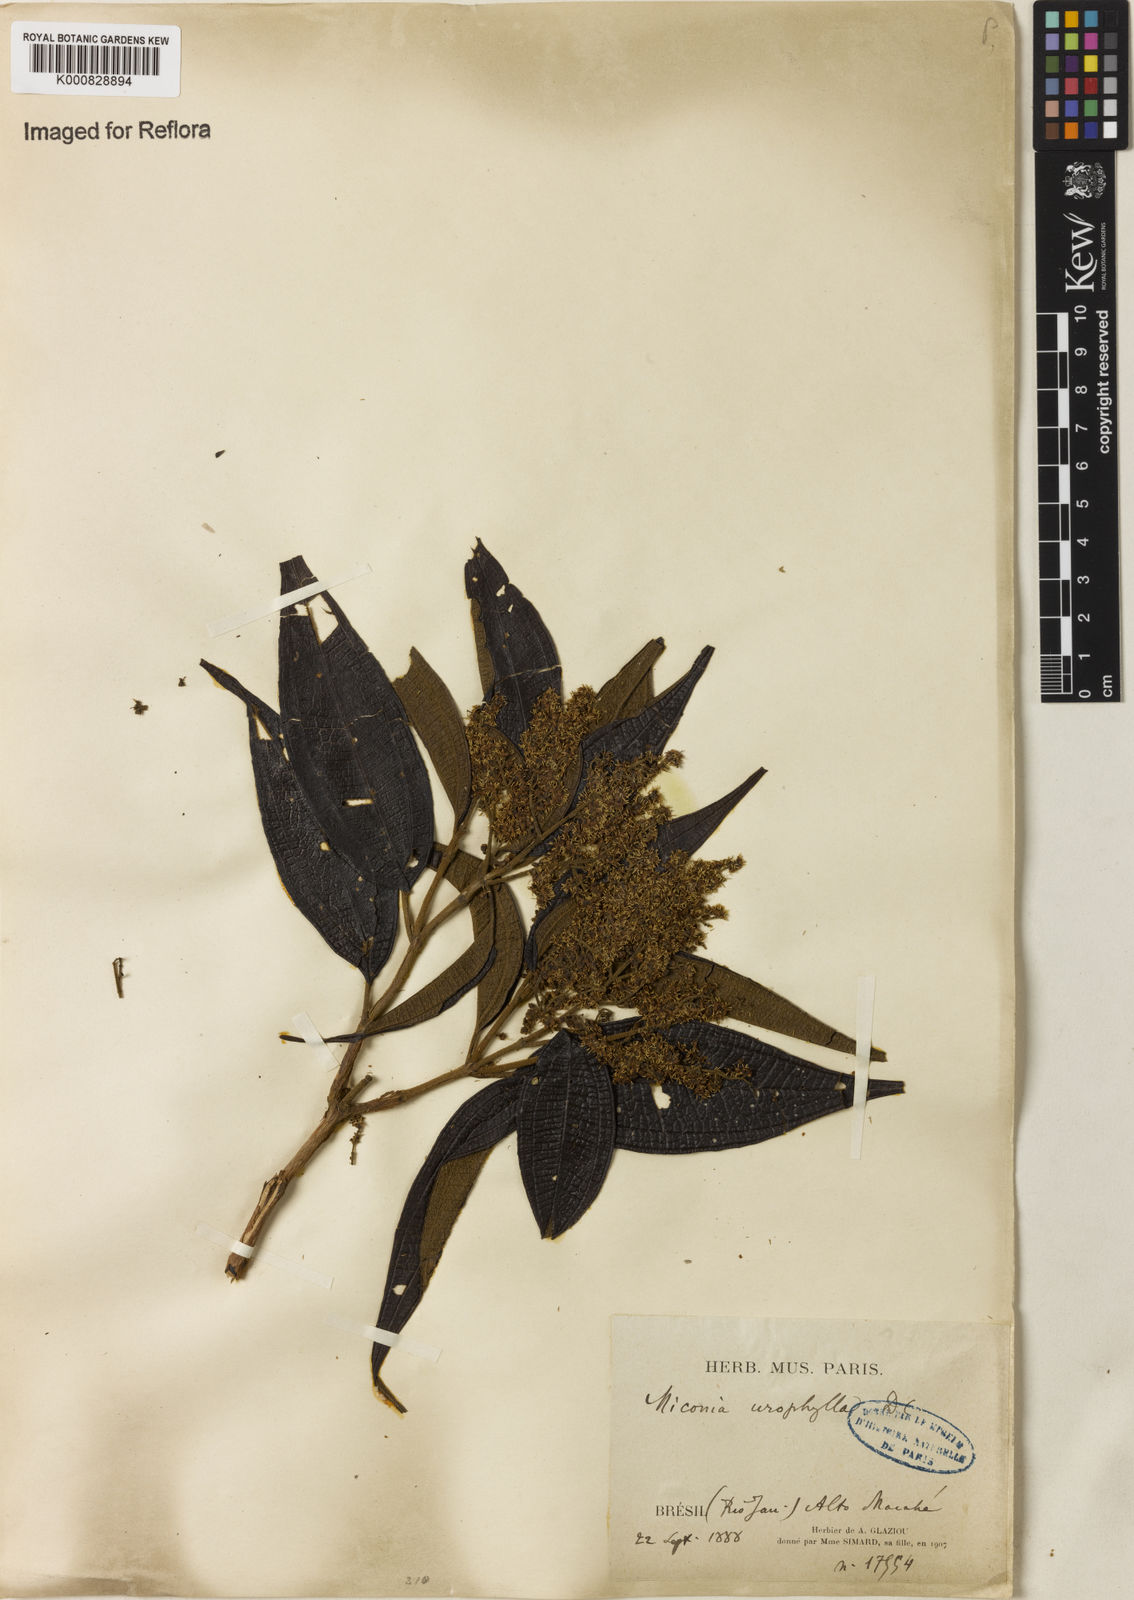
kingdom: Plantae
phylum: Tracheophyta
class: Magnoliopsida
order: Myrtales
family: Melastomataceae
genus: Miconia
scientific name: Miconia urophylla
